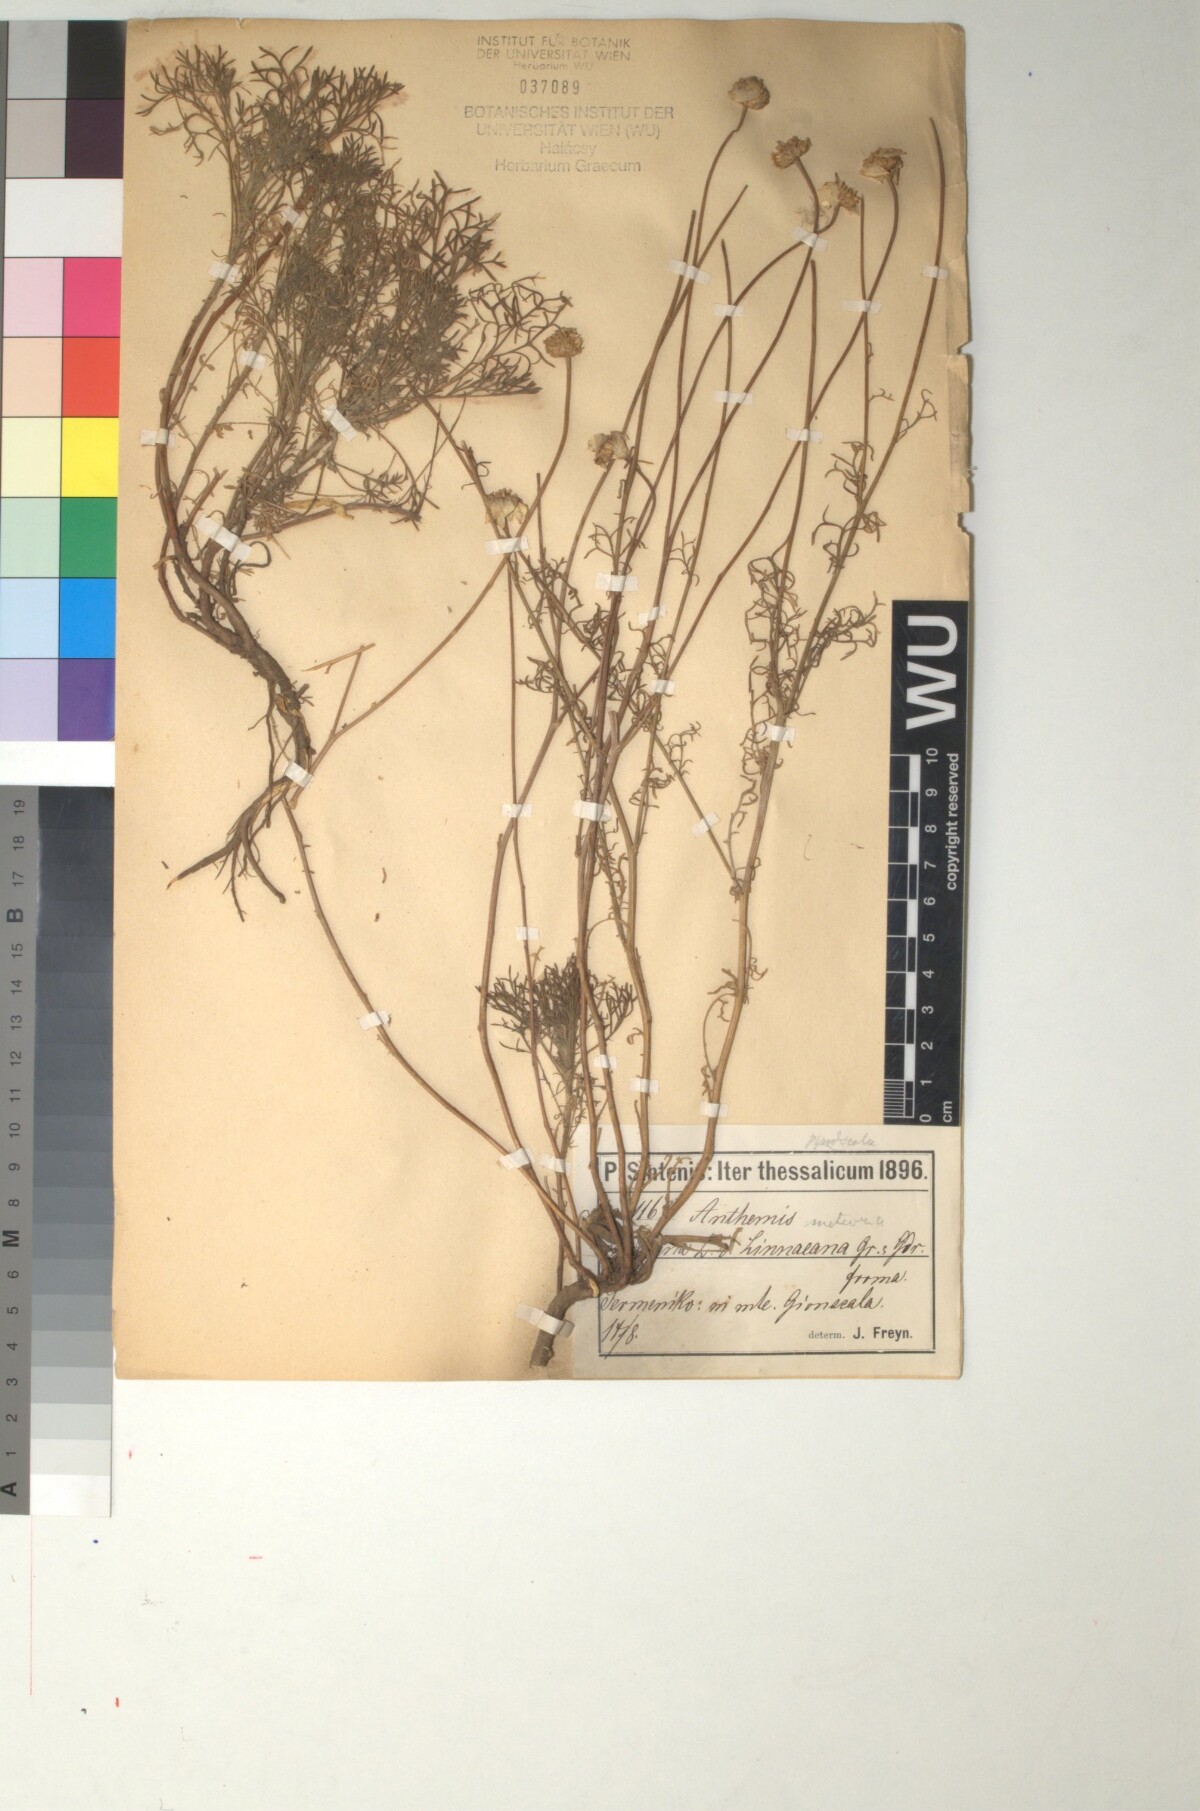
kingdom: Plantae
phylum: Tracheophyta
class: Magnoliopsida
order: Asterales
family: Asteraceae
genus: Anthemis
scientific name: Anthemis pindicola
